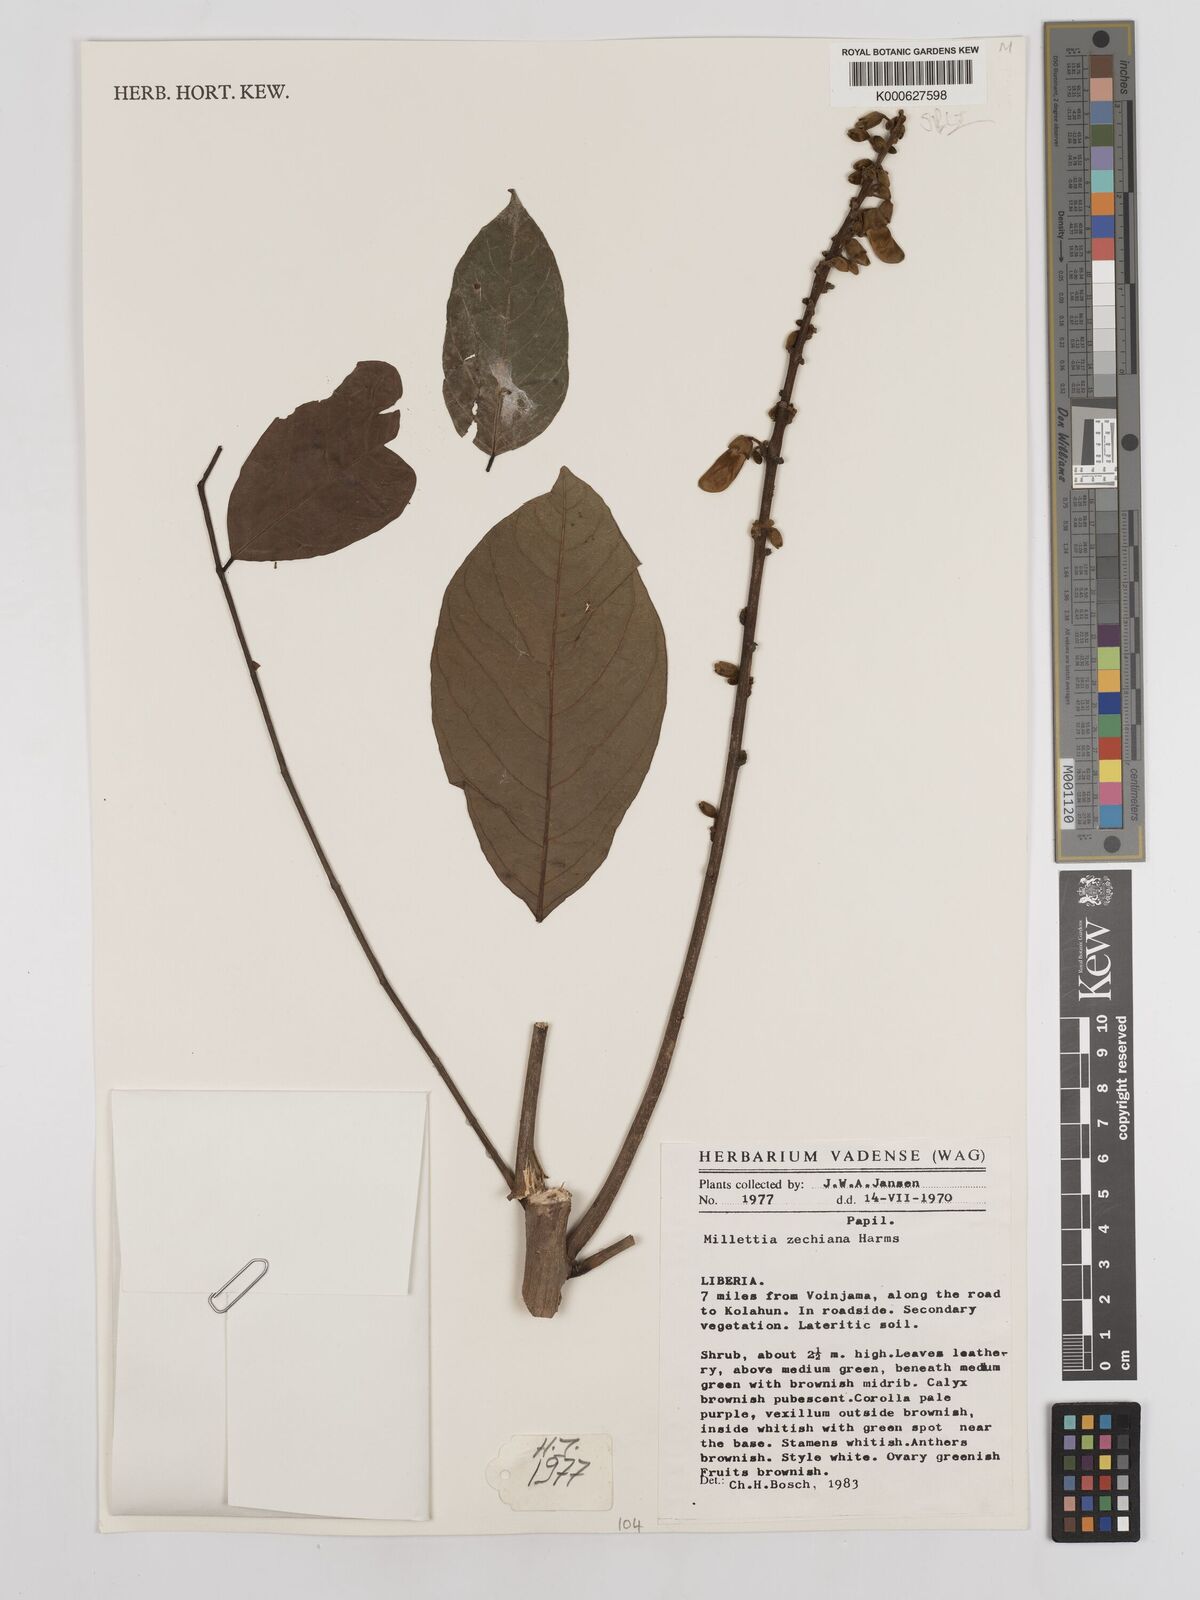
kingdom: Plantae
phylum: Tracheophyta
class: Magnoliopsida
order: Fabales
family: Fabaceae
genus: Millettia
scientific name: Millettia zechiana
